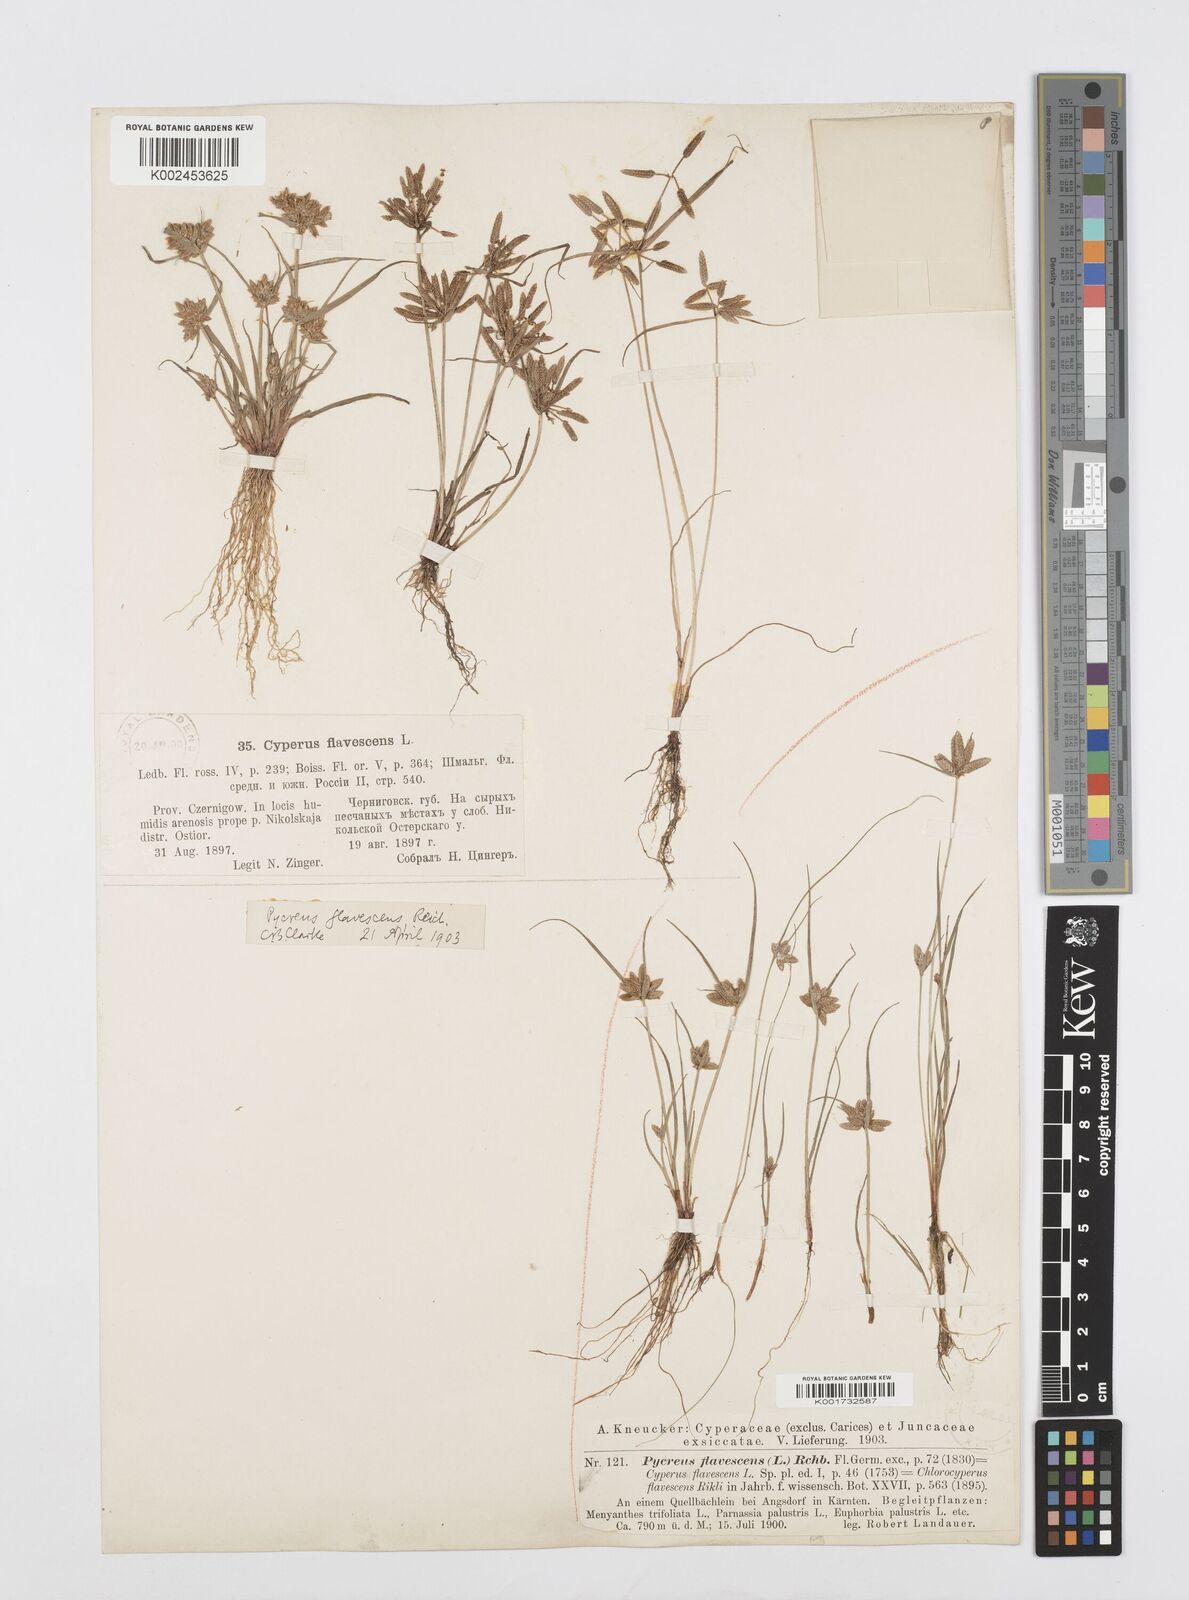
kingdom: Plantae
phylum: Tracheophyta
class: Liliopsida
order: Poales
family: Cyperaceae
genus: Cyperus
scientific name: Cyperus flavescens
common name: Yellow galingale
